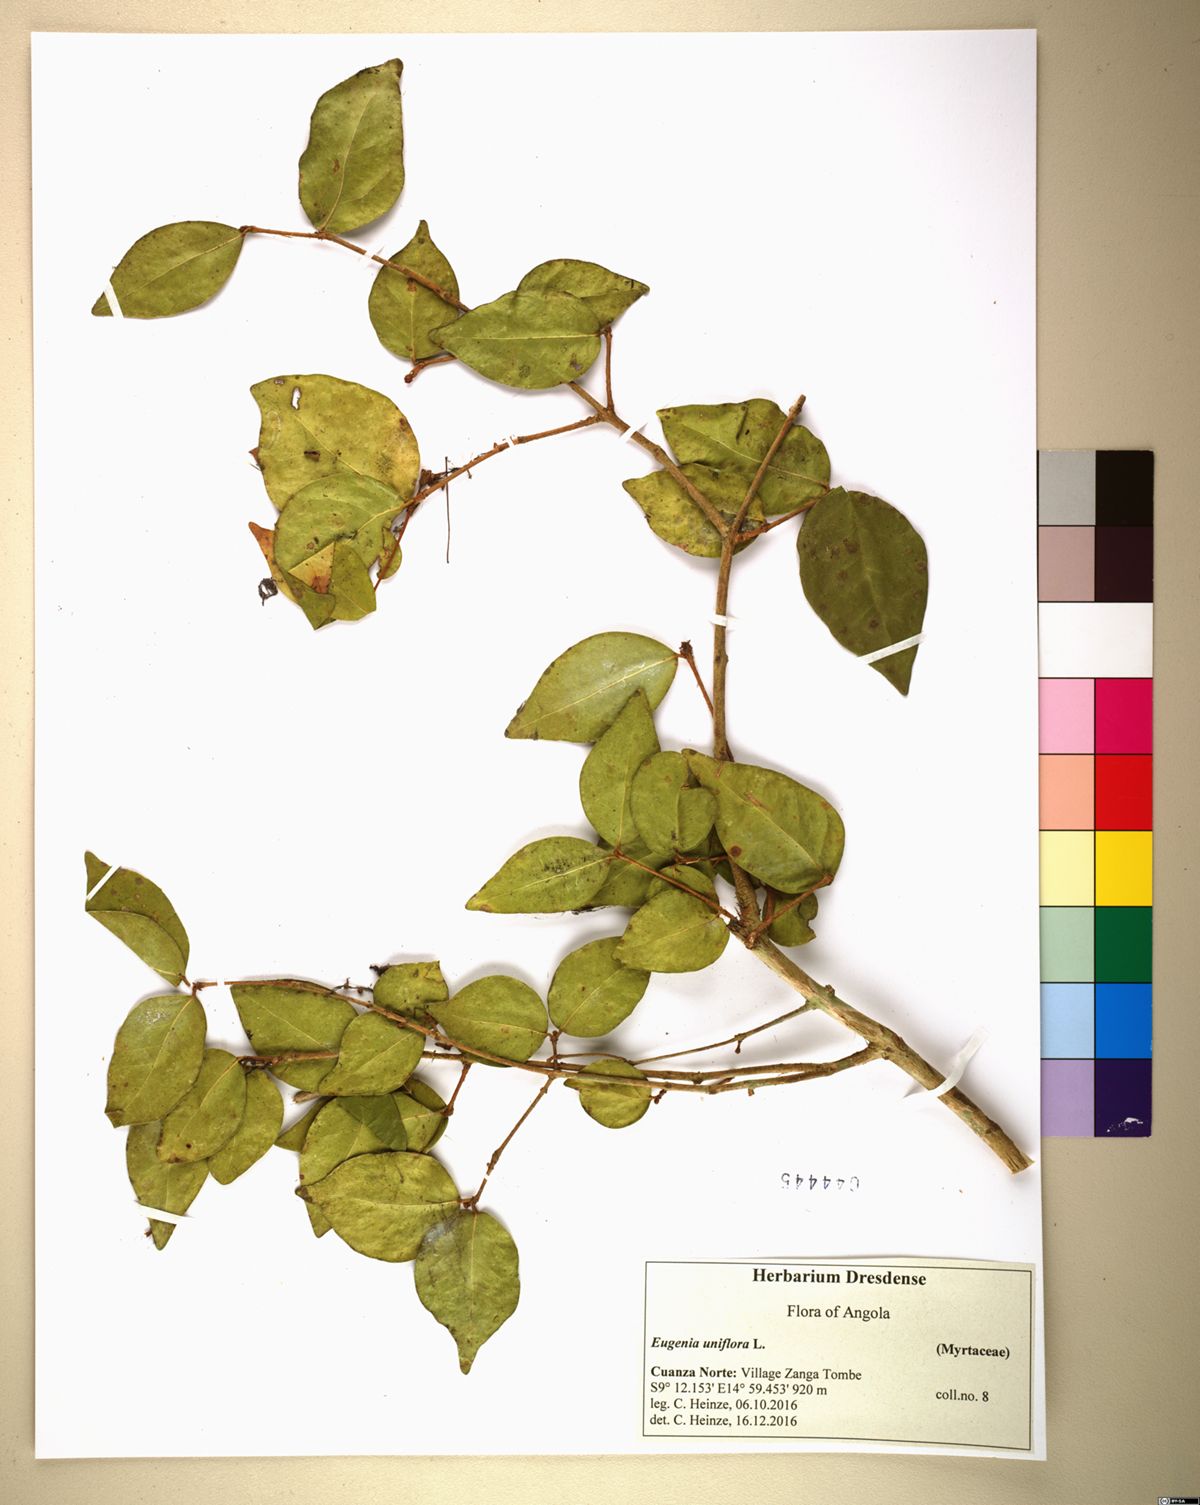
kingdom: Plantae
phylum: Tracheophyta
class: Magnoliopsida
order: Myrtales
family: Myrtaceae
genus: Eugenia
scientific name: Eugenia
